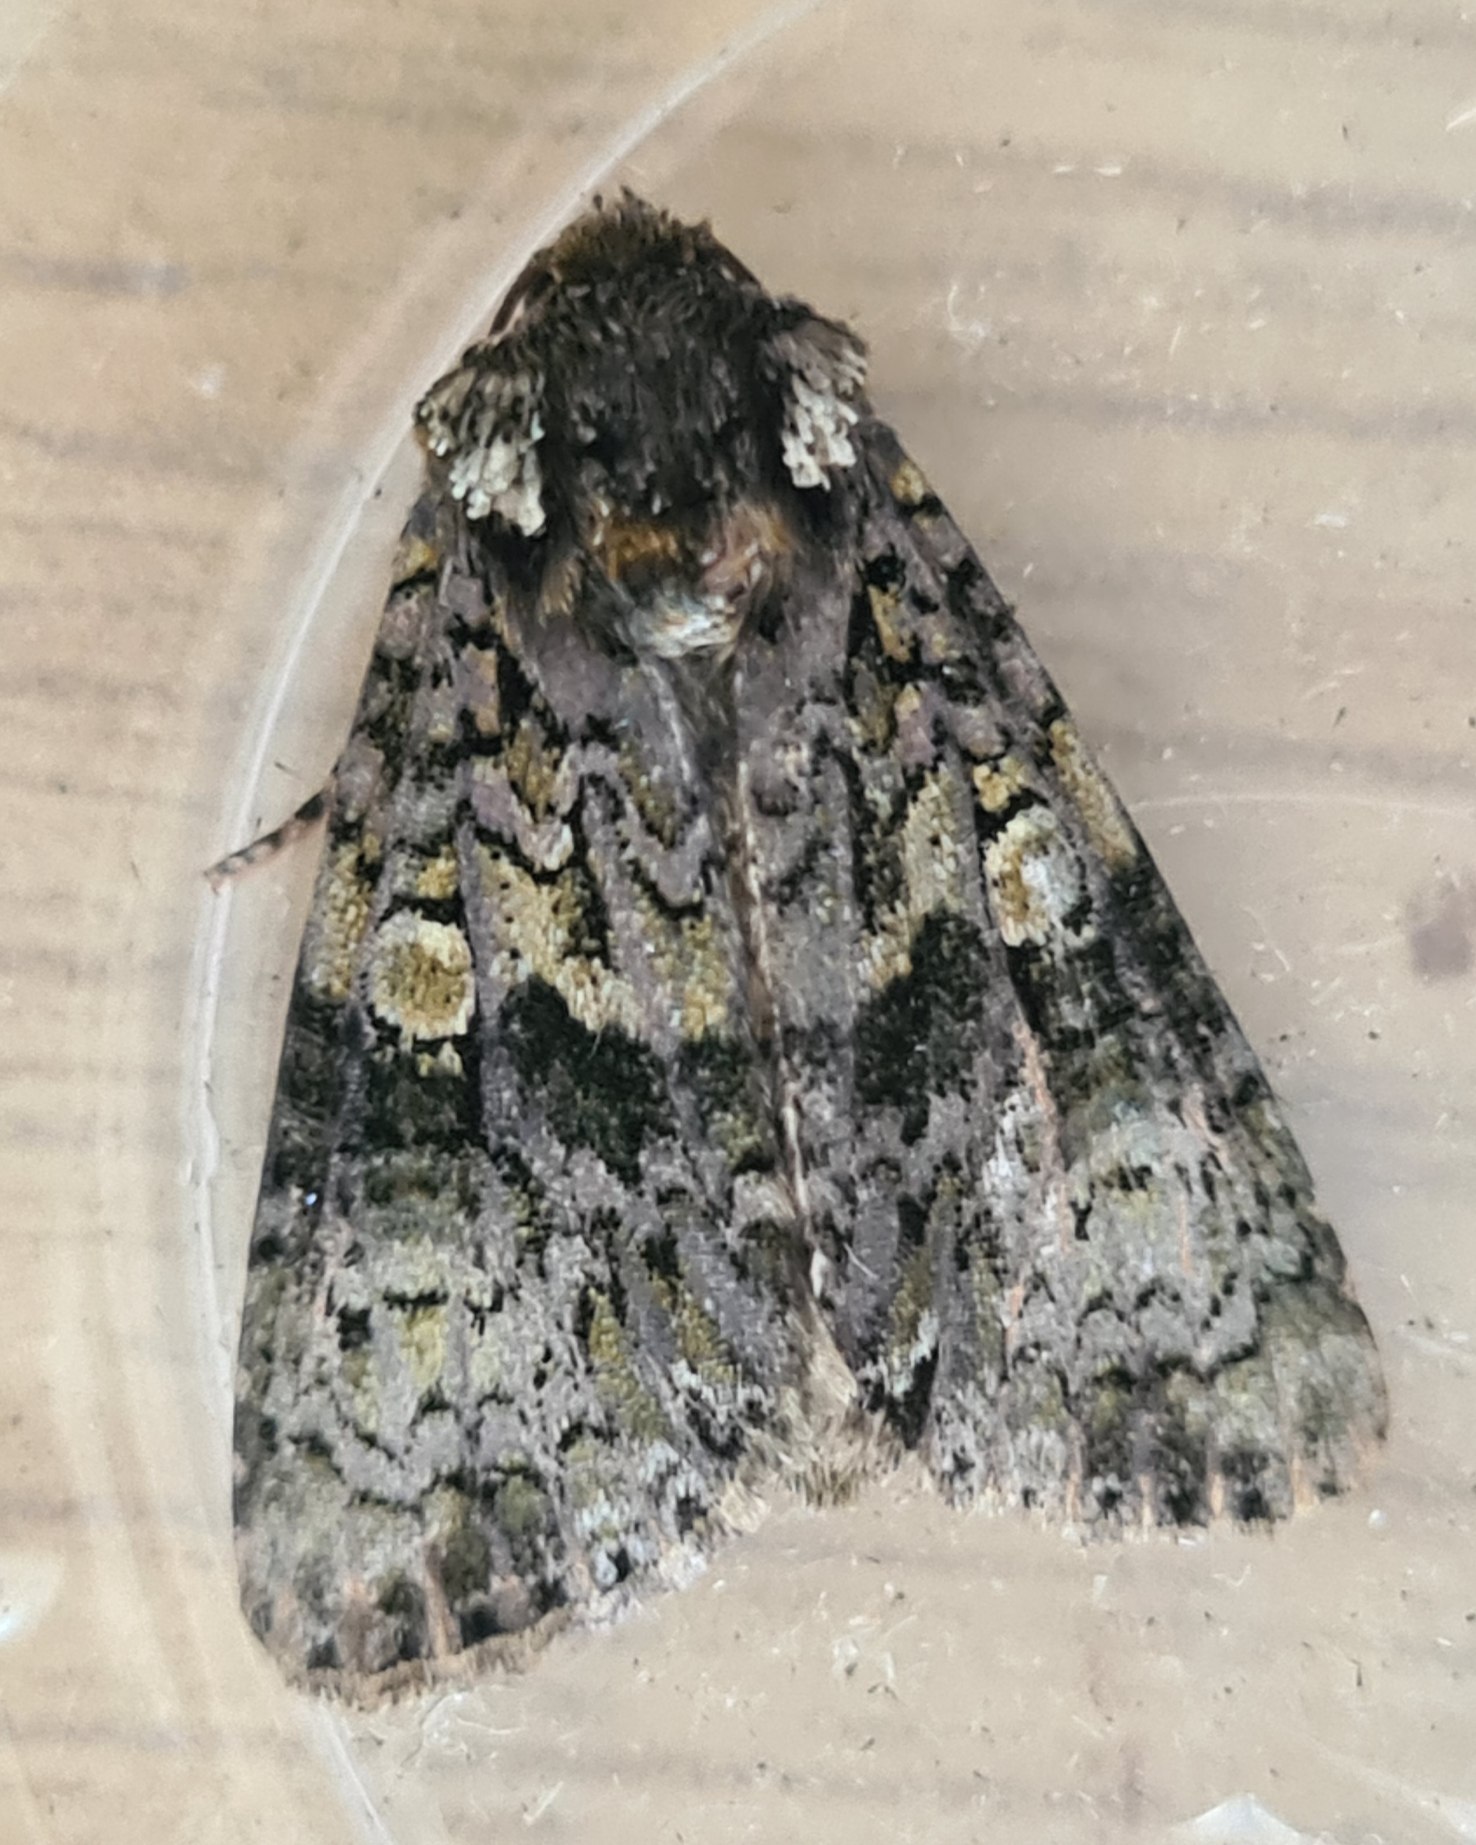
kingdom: Animalia
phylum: Arthropoda
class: Insecta
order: Lepidoptera
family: Noctuidae
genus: Craniophora
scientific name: Craniophora ligustri
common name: Askeugle
